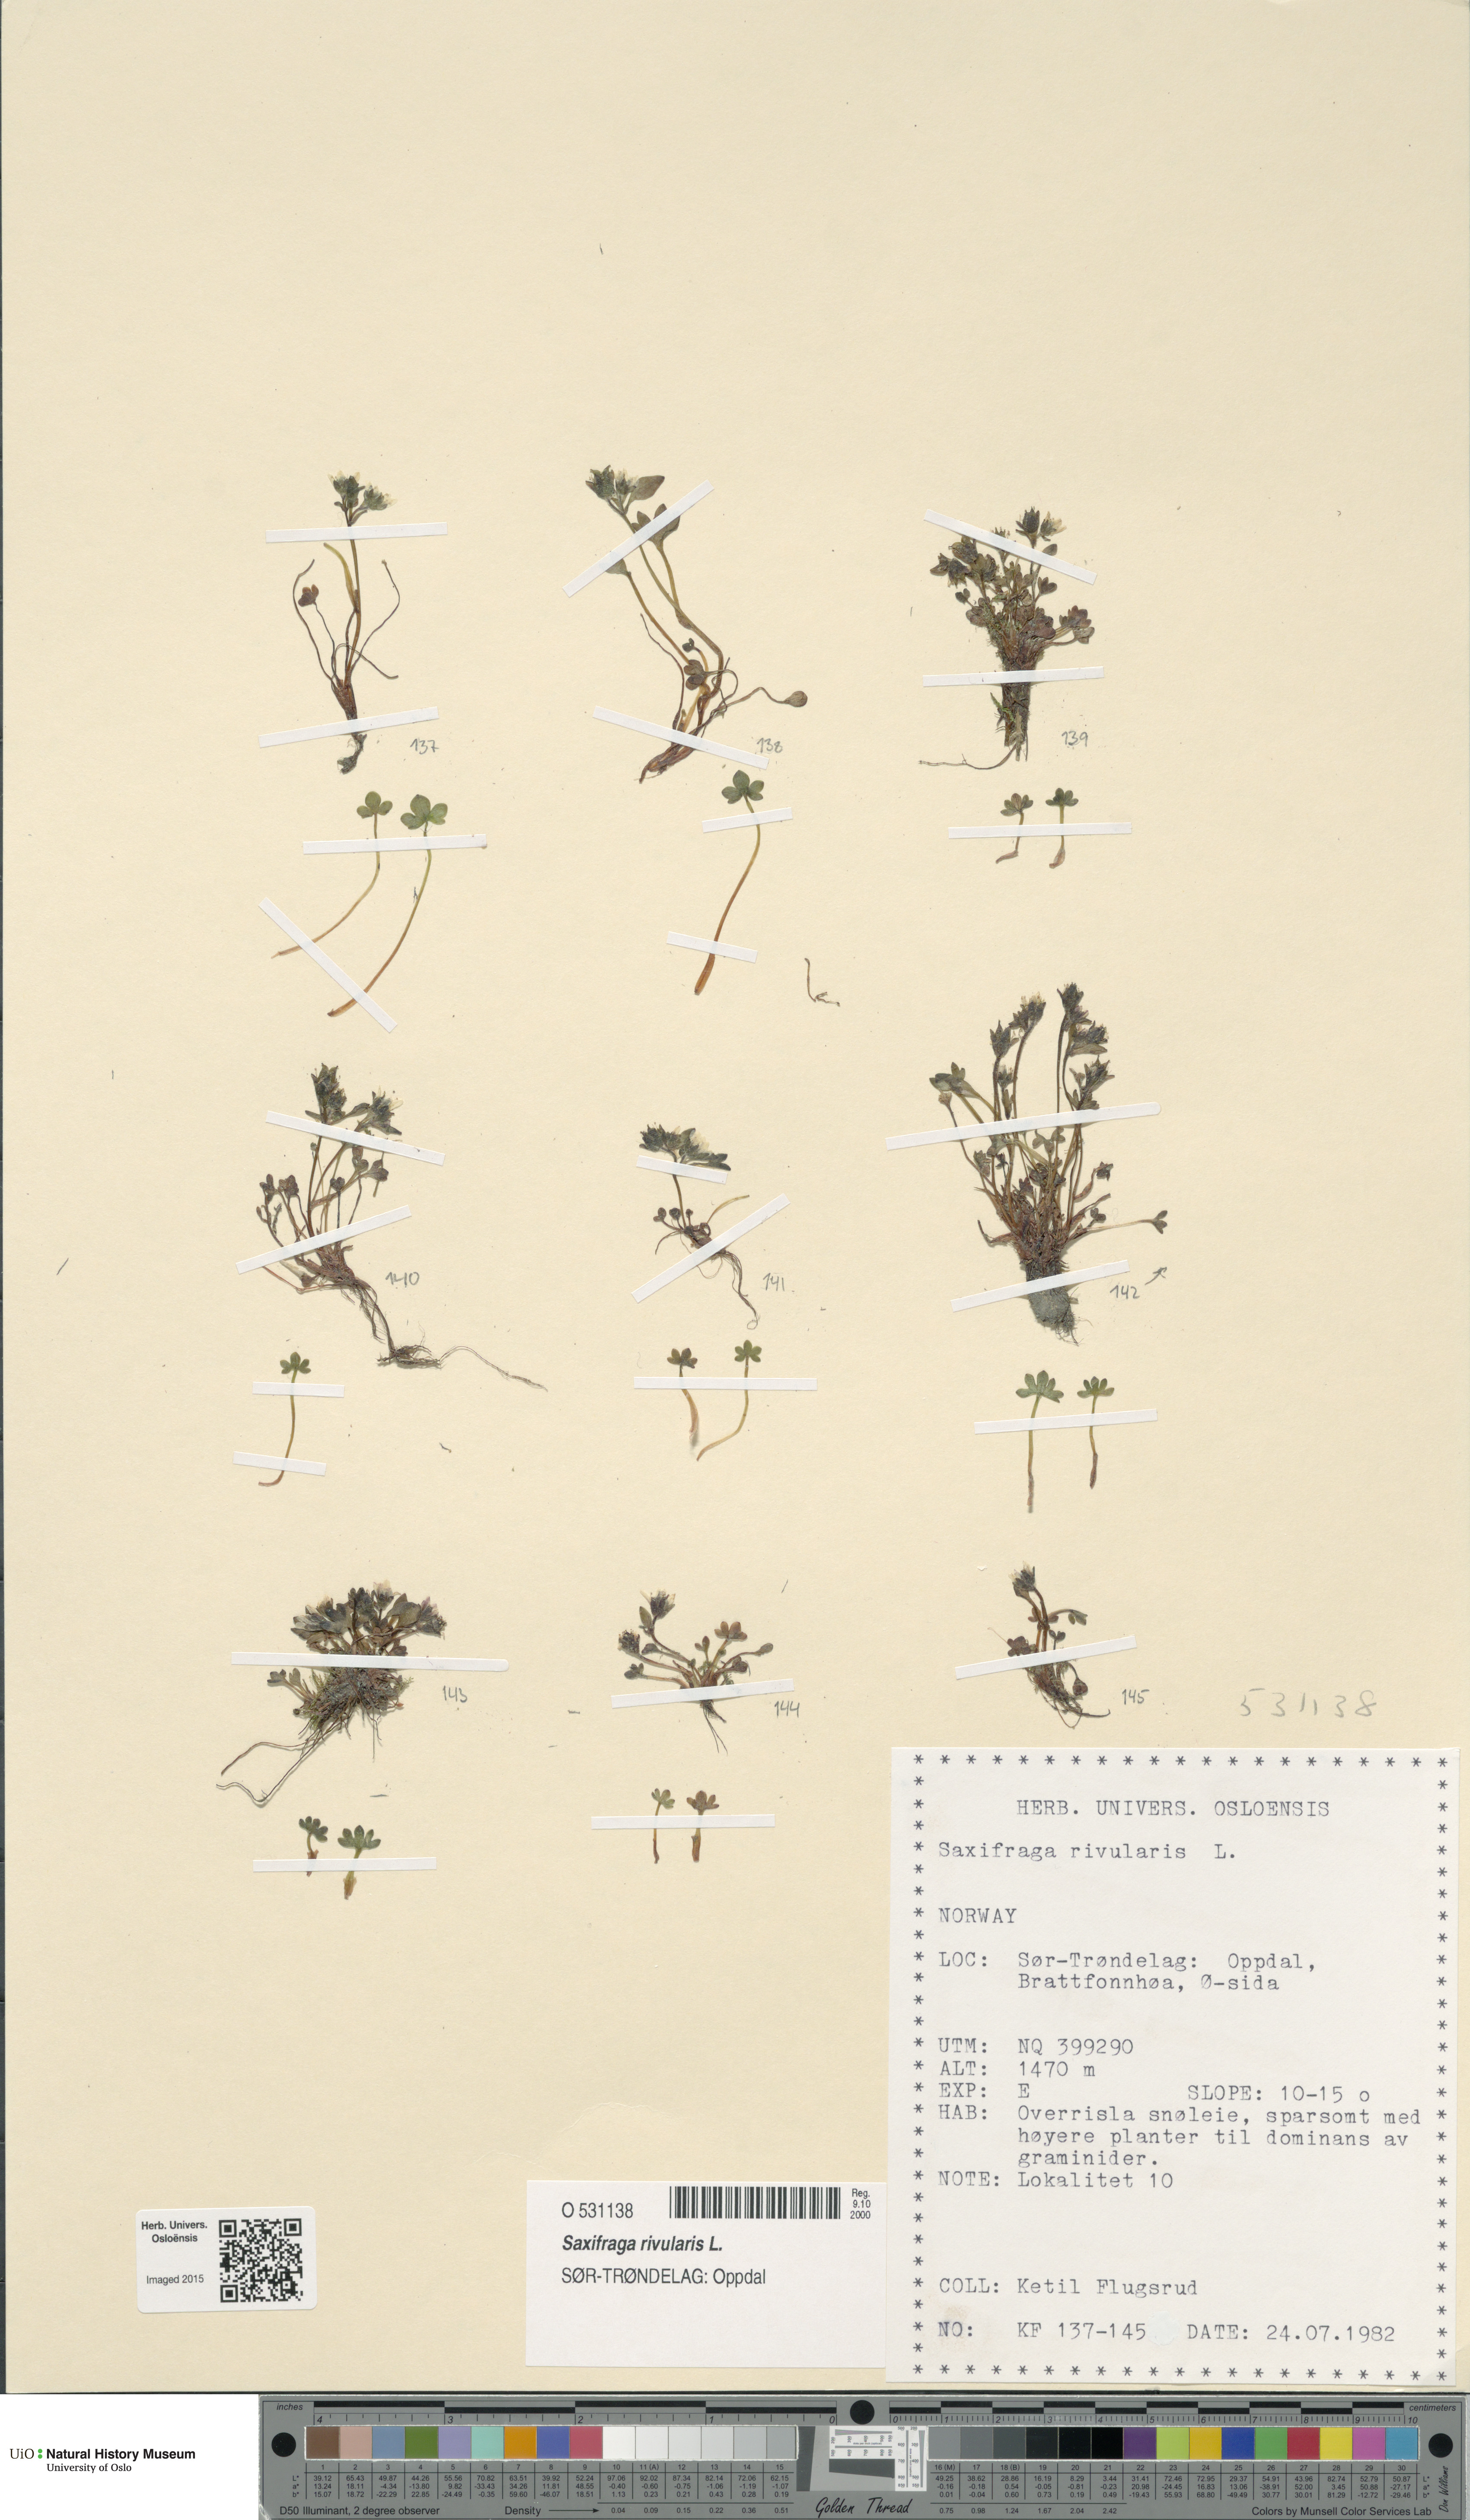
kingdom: Plantae
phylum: Tracheophyta
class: Magnoliopsida
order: Saxifragales
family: Saxifragaceae
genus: Saxifraga
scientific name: Saxifraga rivularis
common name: Highland saxifrage
